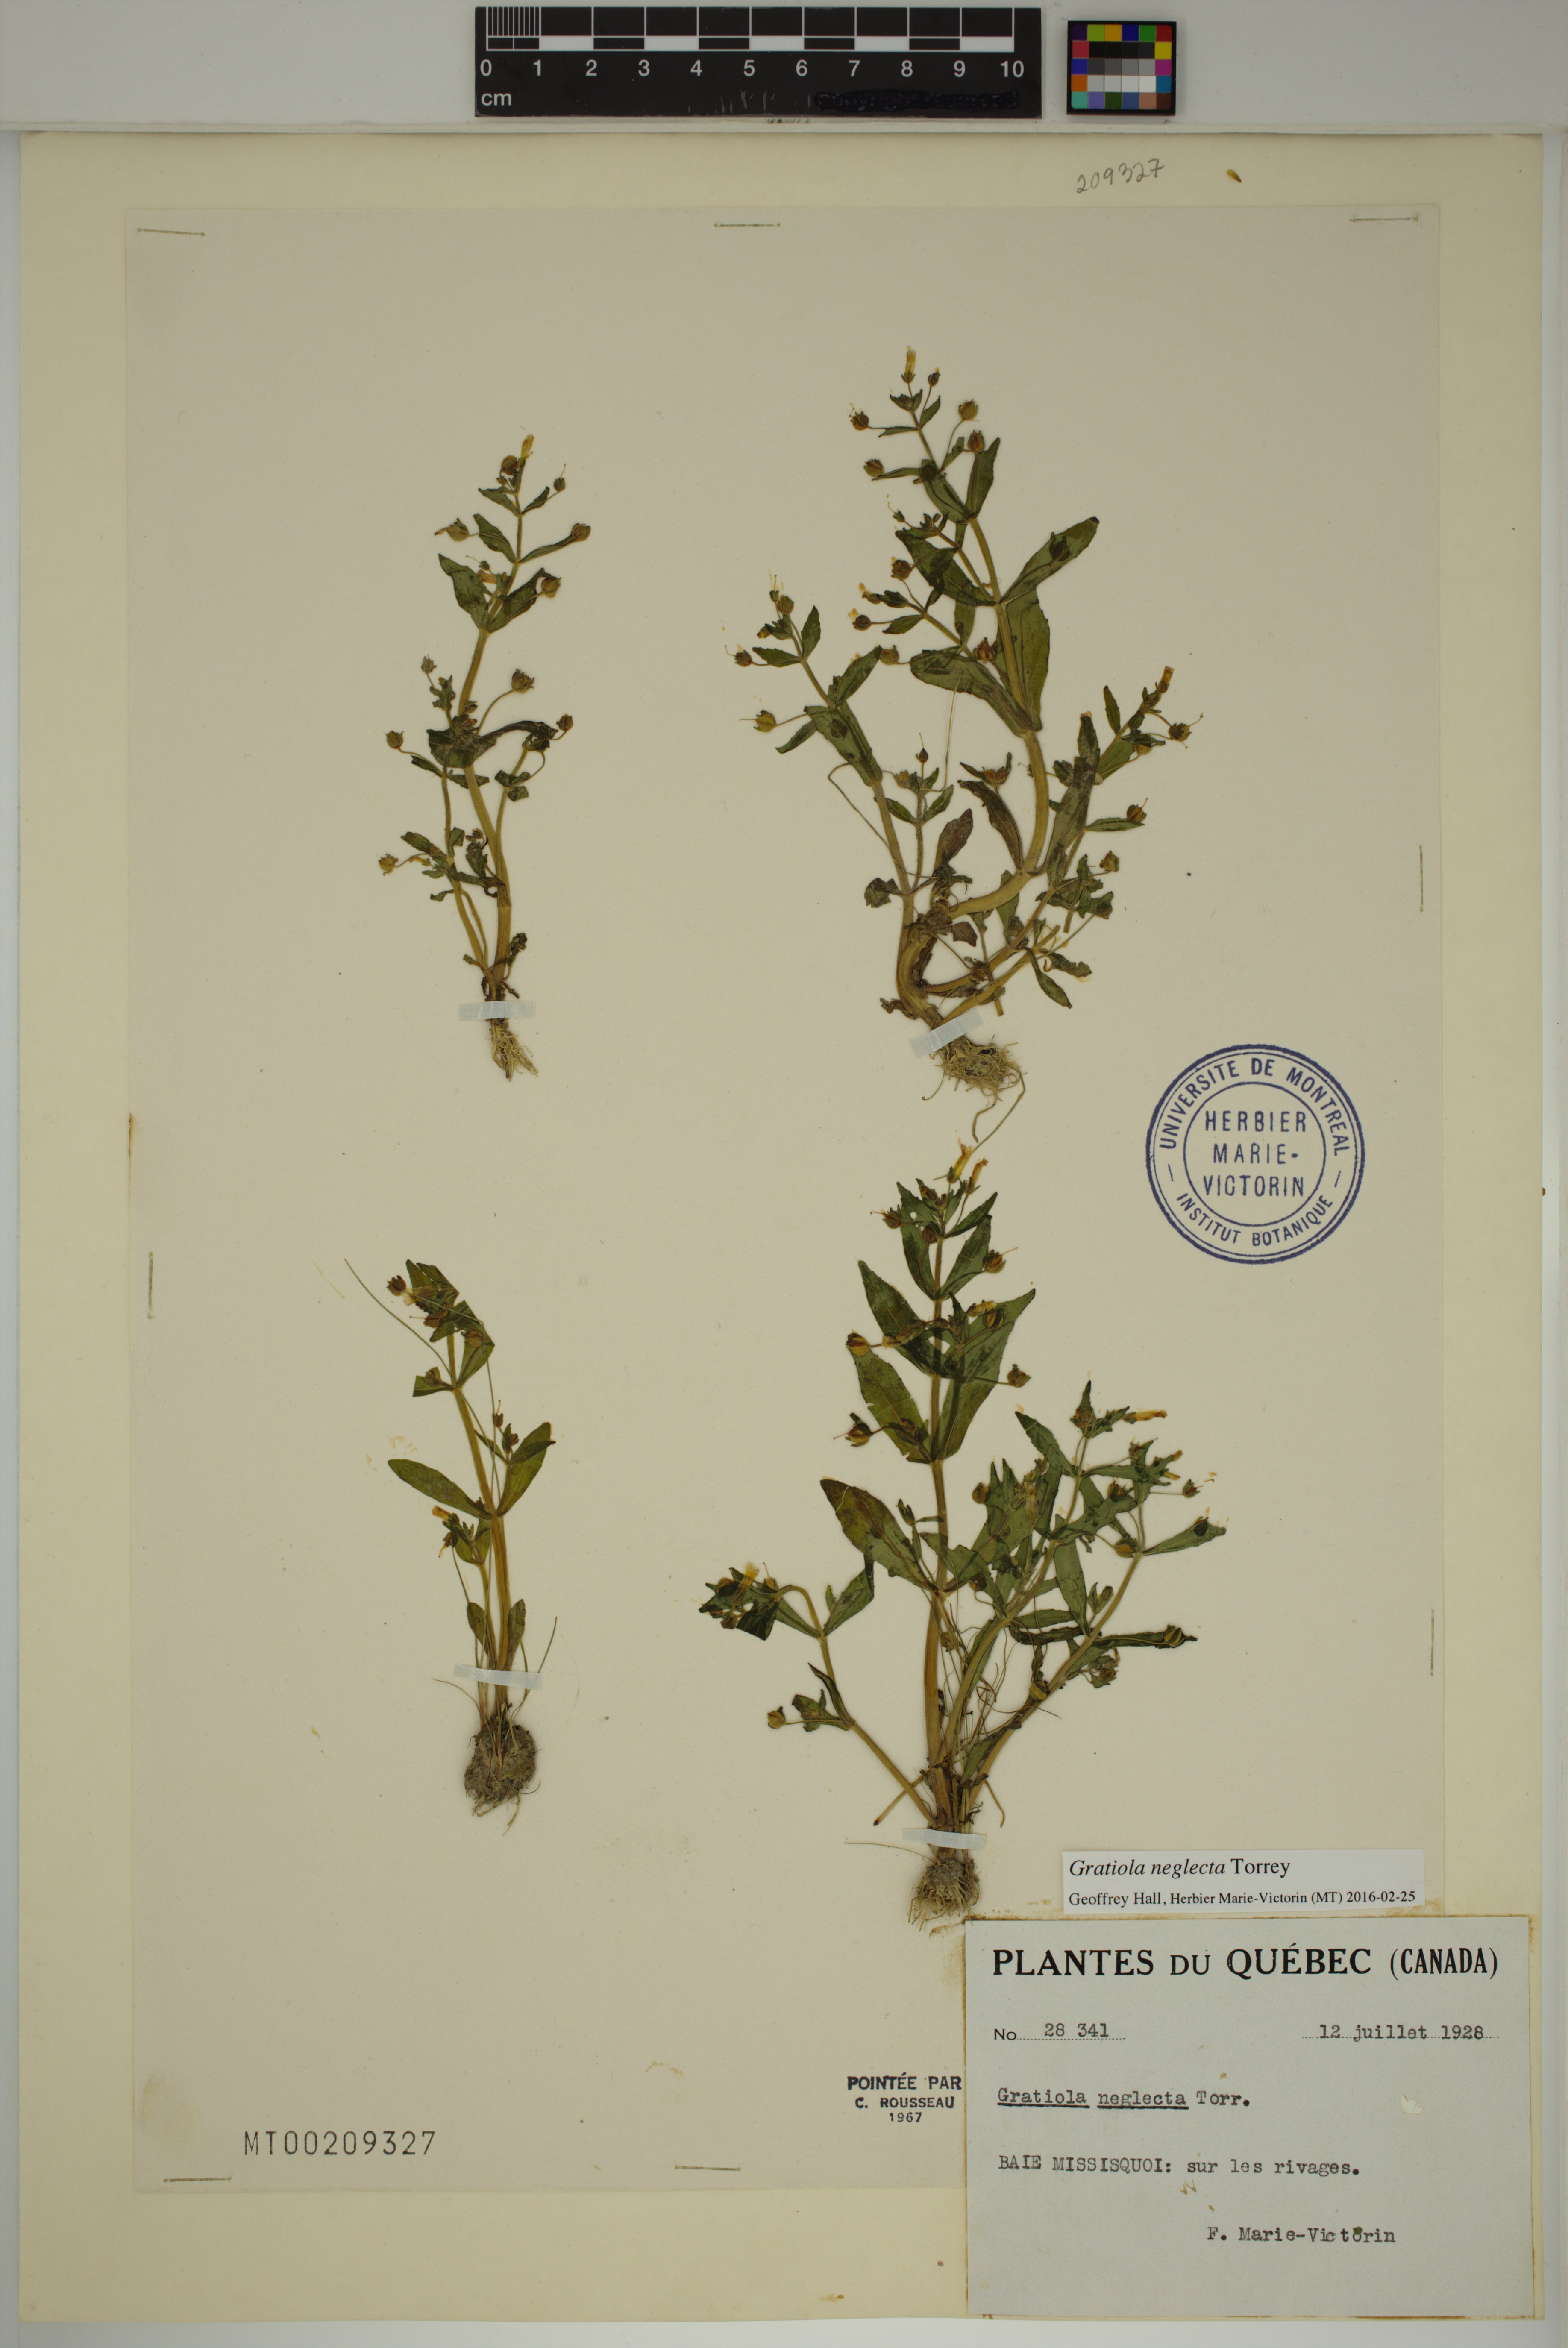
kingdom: Plantae
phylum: Tracheophyta
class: Magnoliopsida
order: Lamiales
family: Plantaginaceae
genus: Gratiola
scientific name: Gratiola neglecta
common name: American hedge-hyssop
